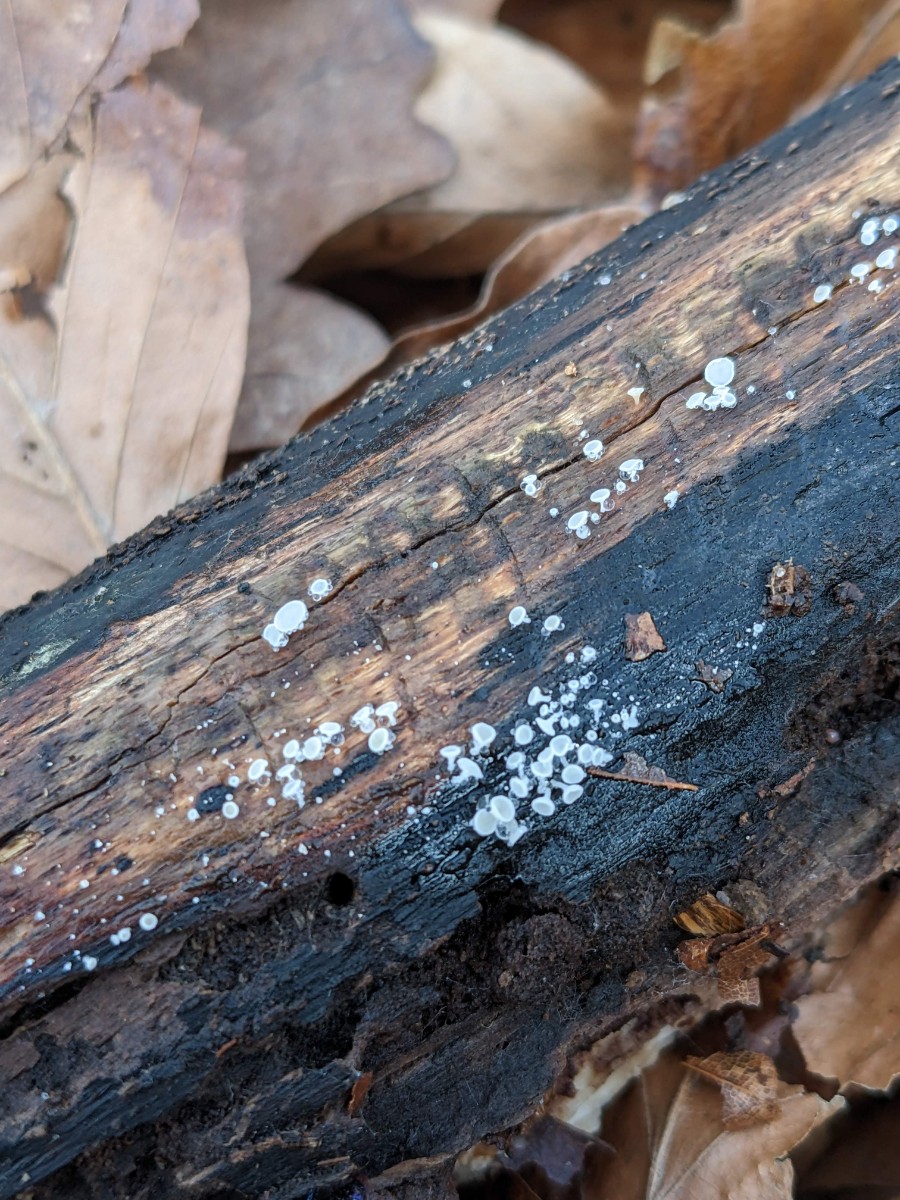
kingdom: Fungi
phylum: Ascomycota
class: Leotiomycetes
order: Helotiales
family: Lachnaceae
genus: Lachnum
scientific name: Lachnum impudicum
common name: vinter-frynseskive
